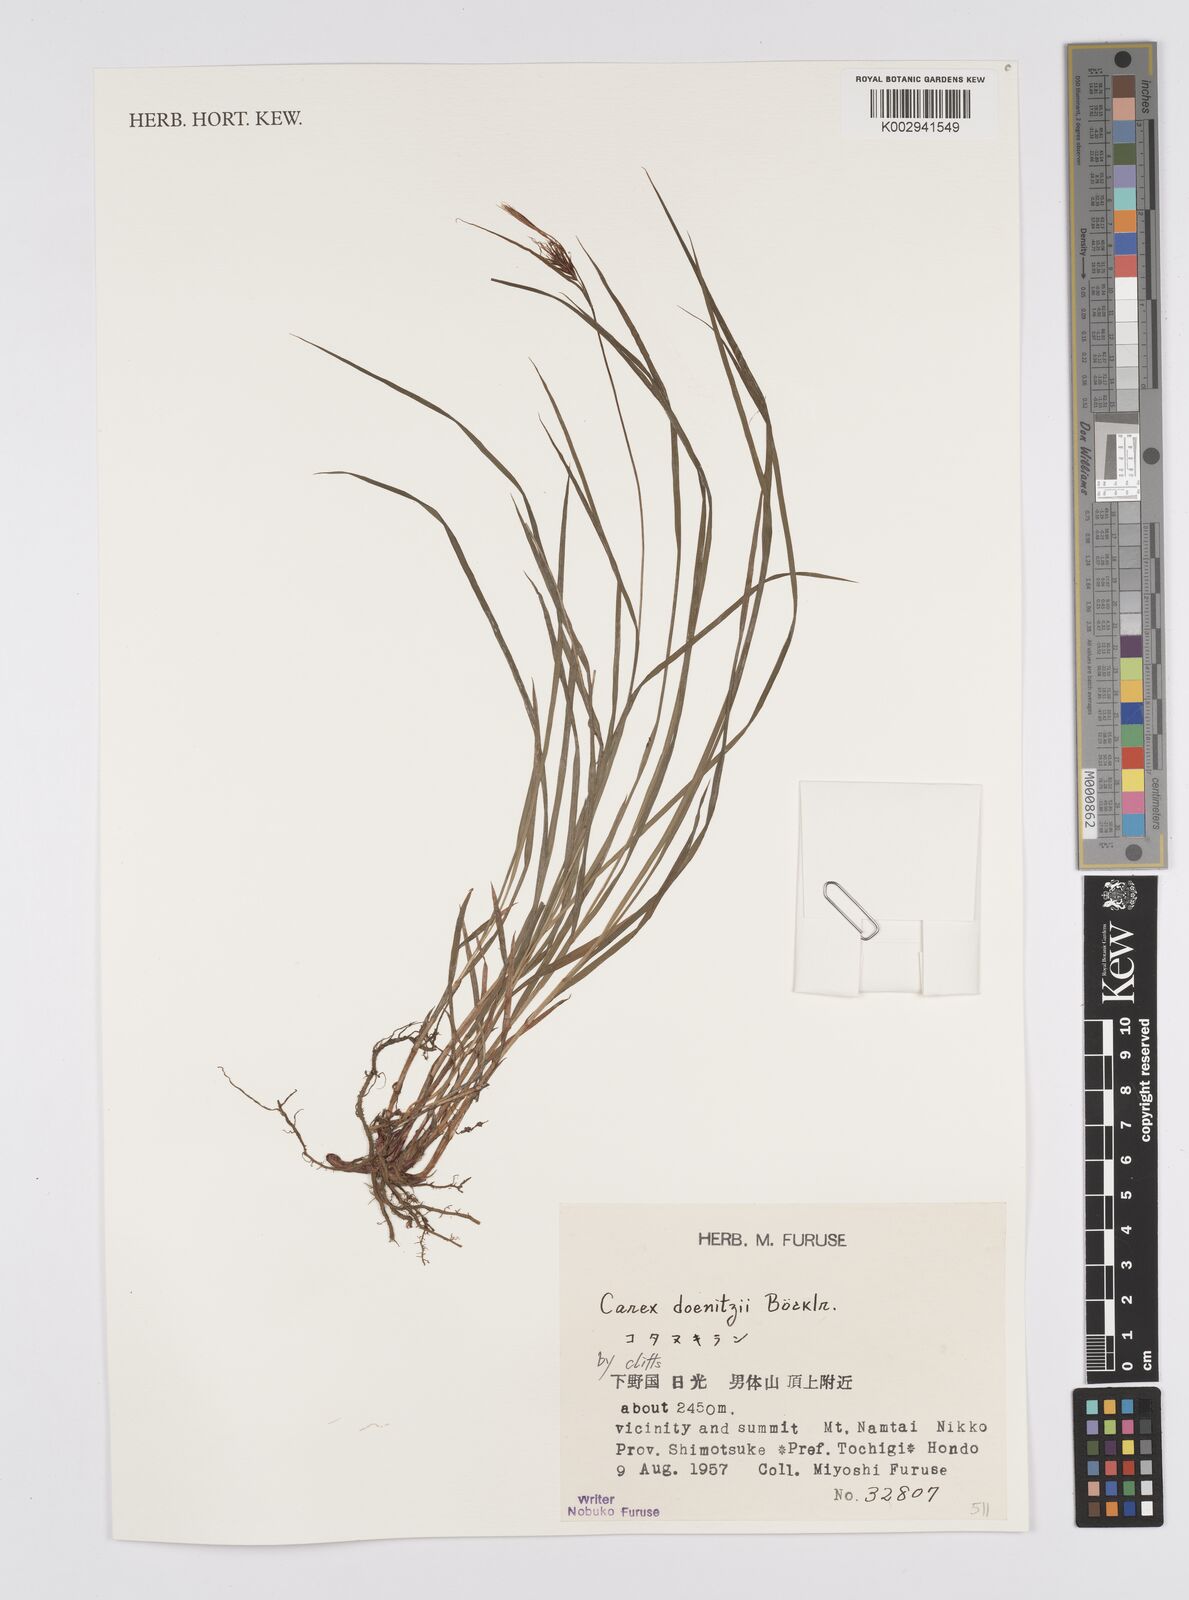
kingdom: Plantae
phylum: Tracheophyta
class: Liliopsida
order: Poales
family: Cyperaceae
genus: Carex
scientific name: Carex doenitzii
